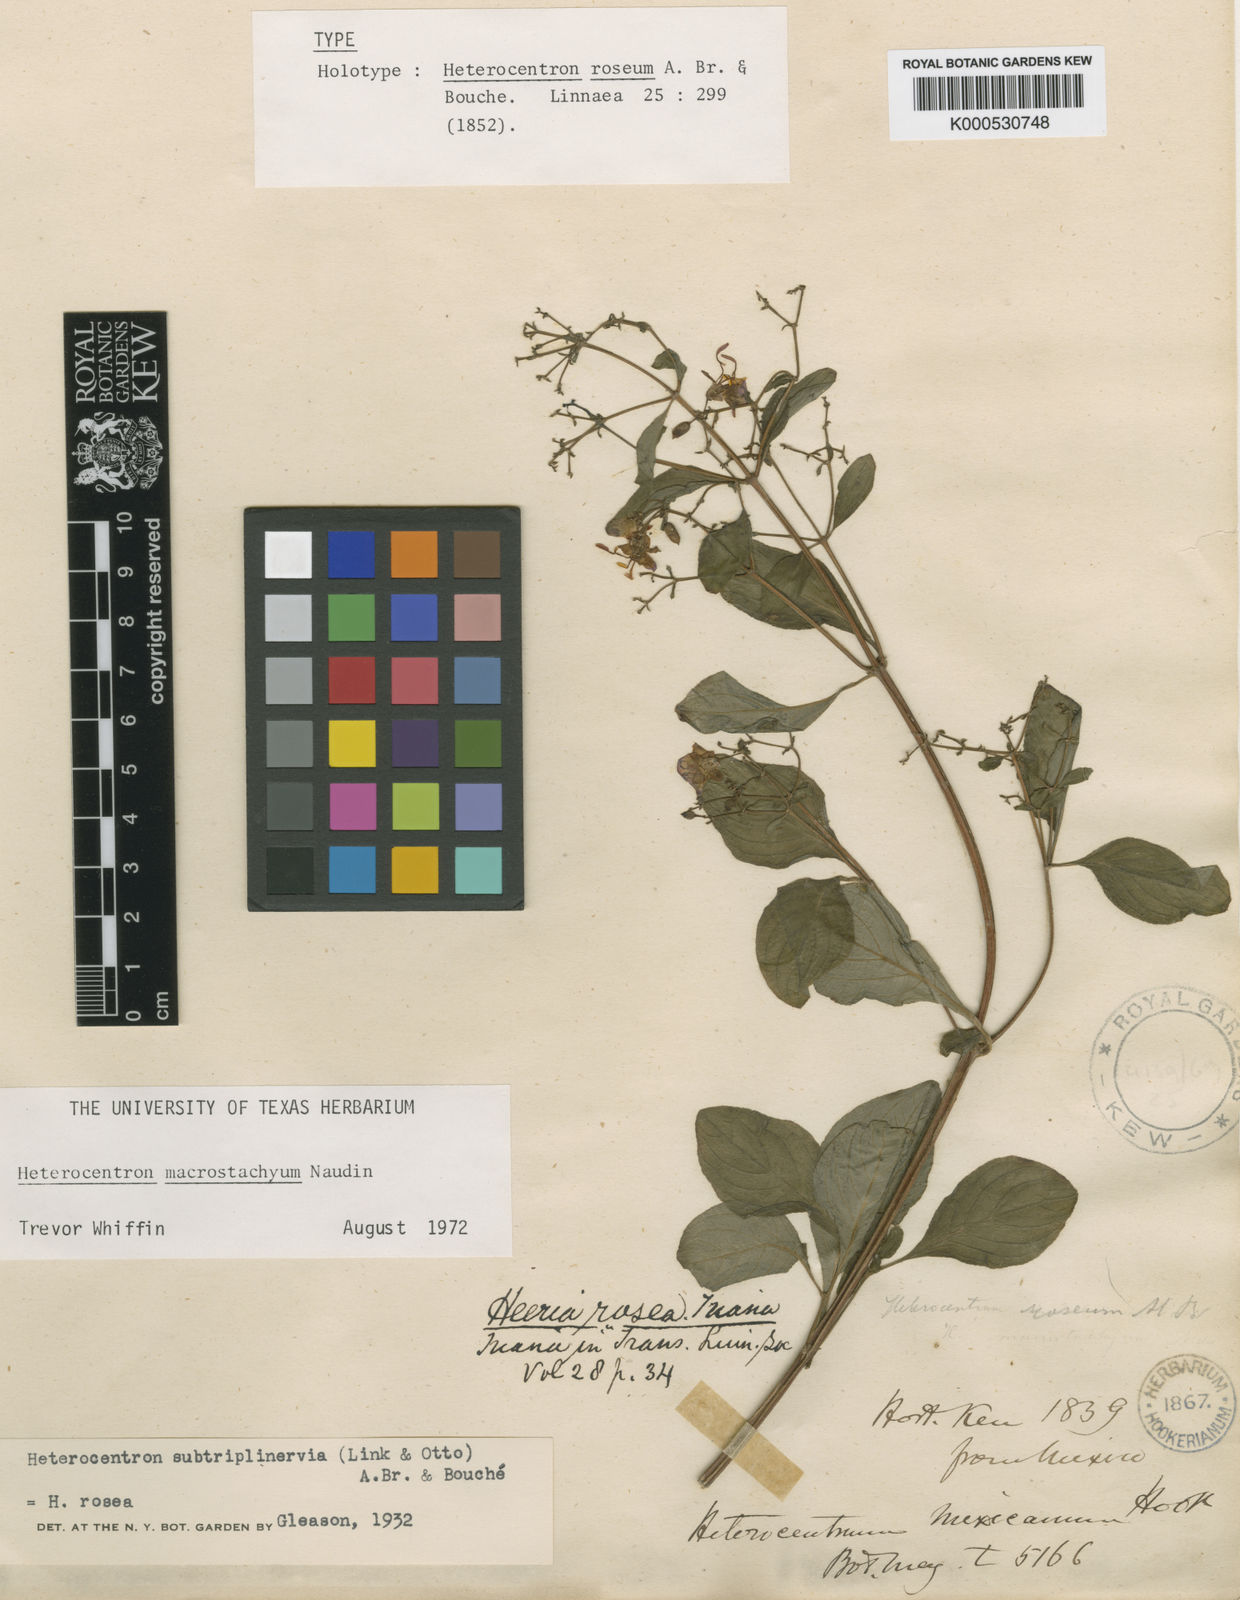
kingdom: Plantae
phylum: Tracheophyta
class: Magnoliopsida
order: Myrtales
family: Melastomataceae
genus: Heterocentron
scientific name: Heterocentron subtriplinervium
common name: Pearl flower
